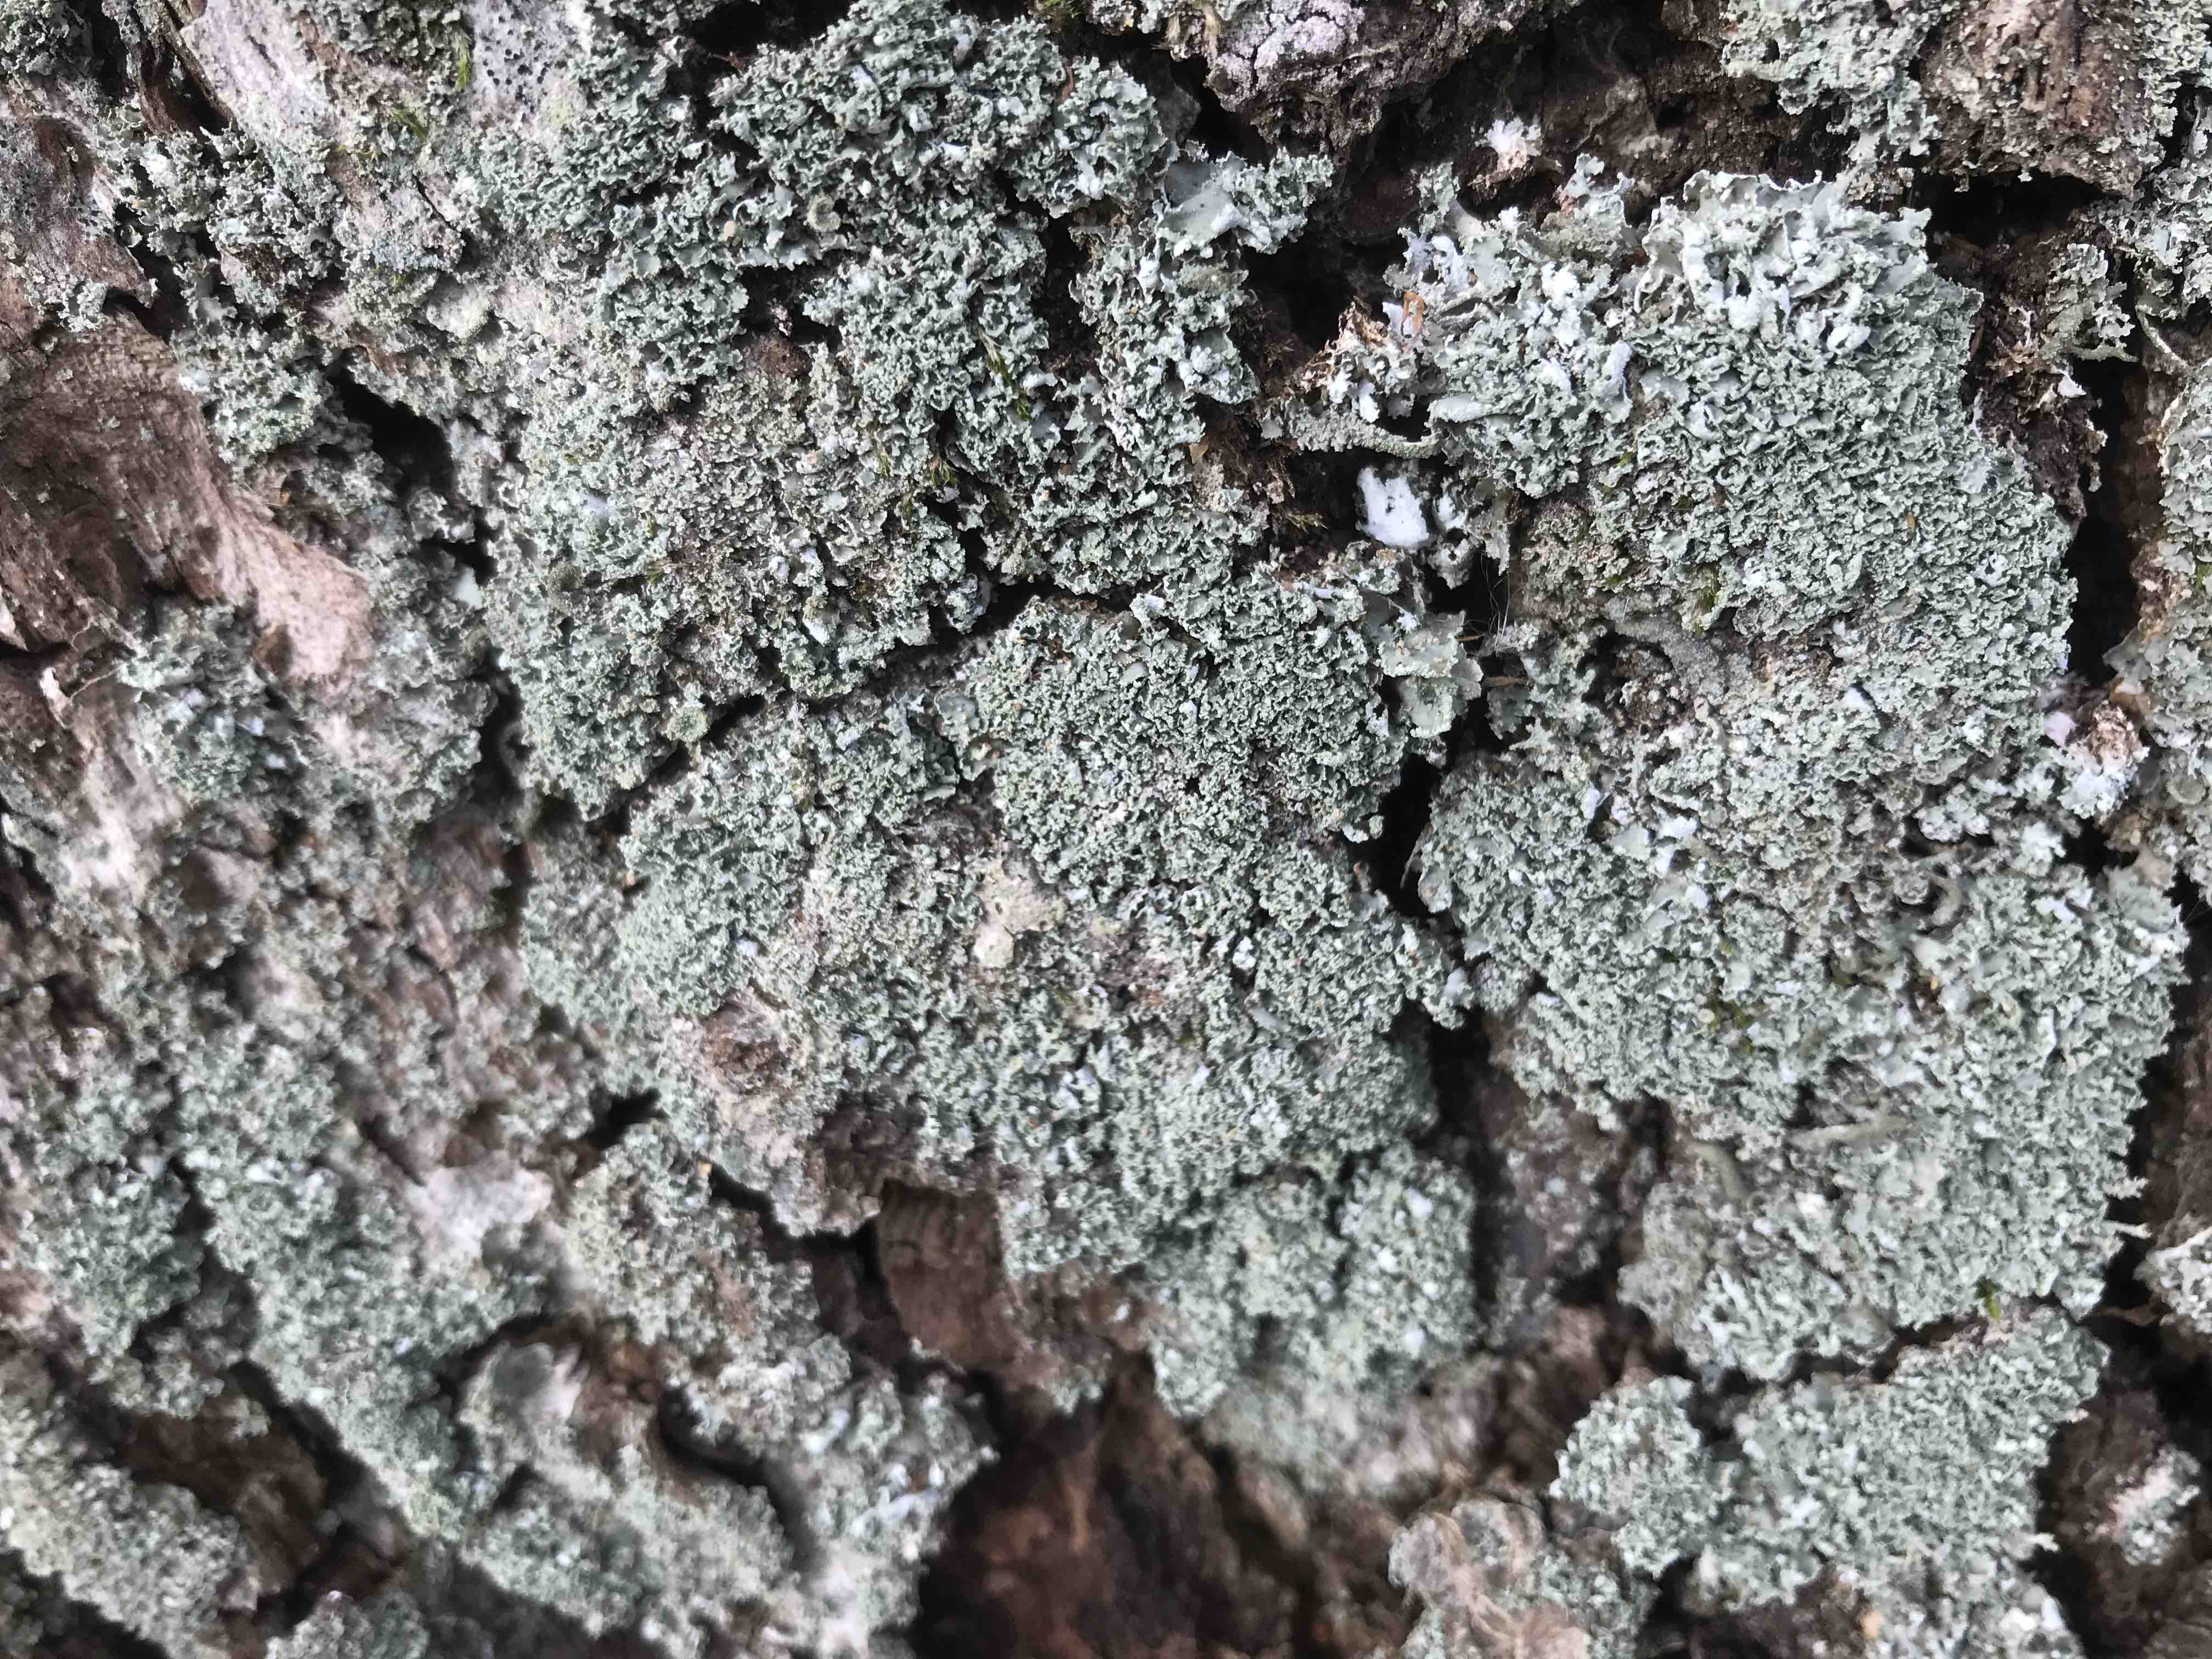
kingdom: Fungi
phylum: Ascomycota
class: Lecanoromycetes
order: Lecanorales
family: Cladoniaceae
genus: Cladonia
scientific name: Cladonia
